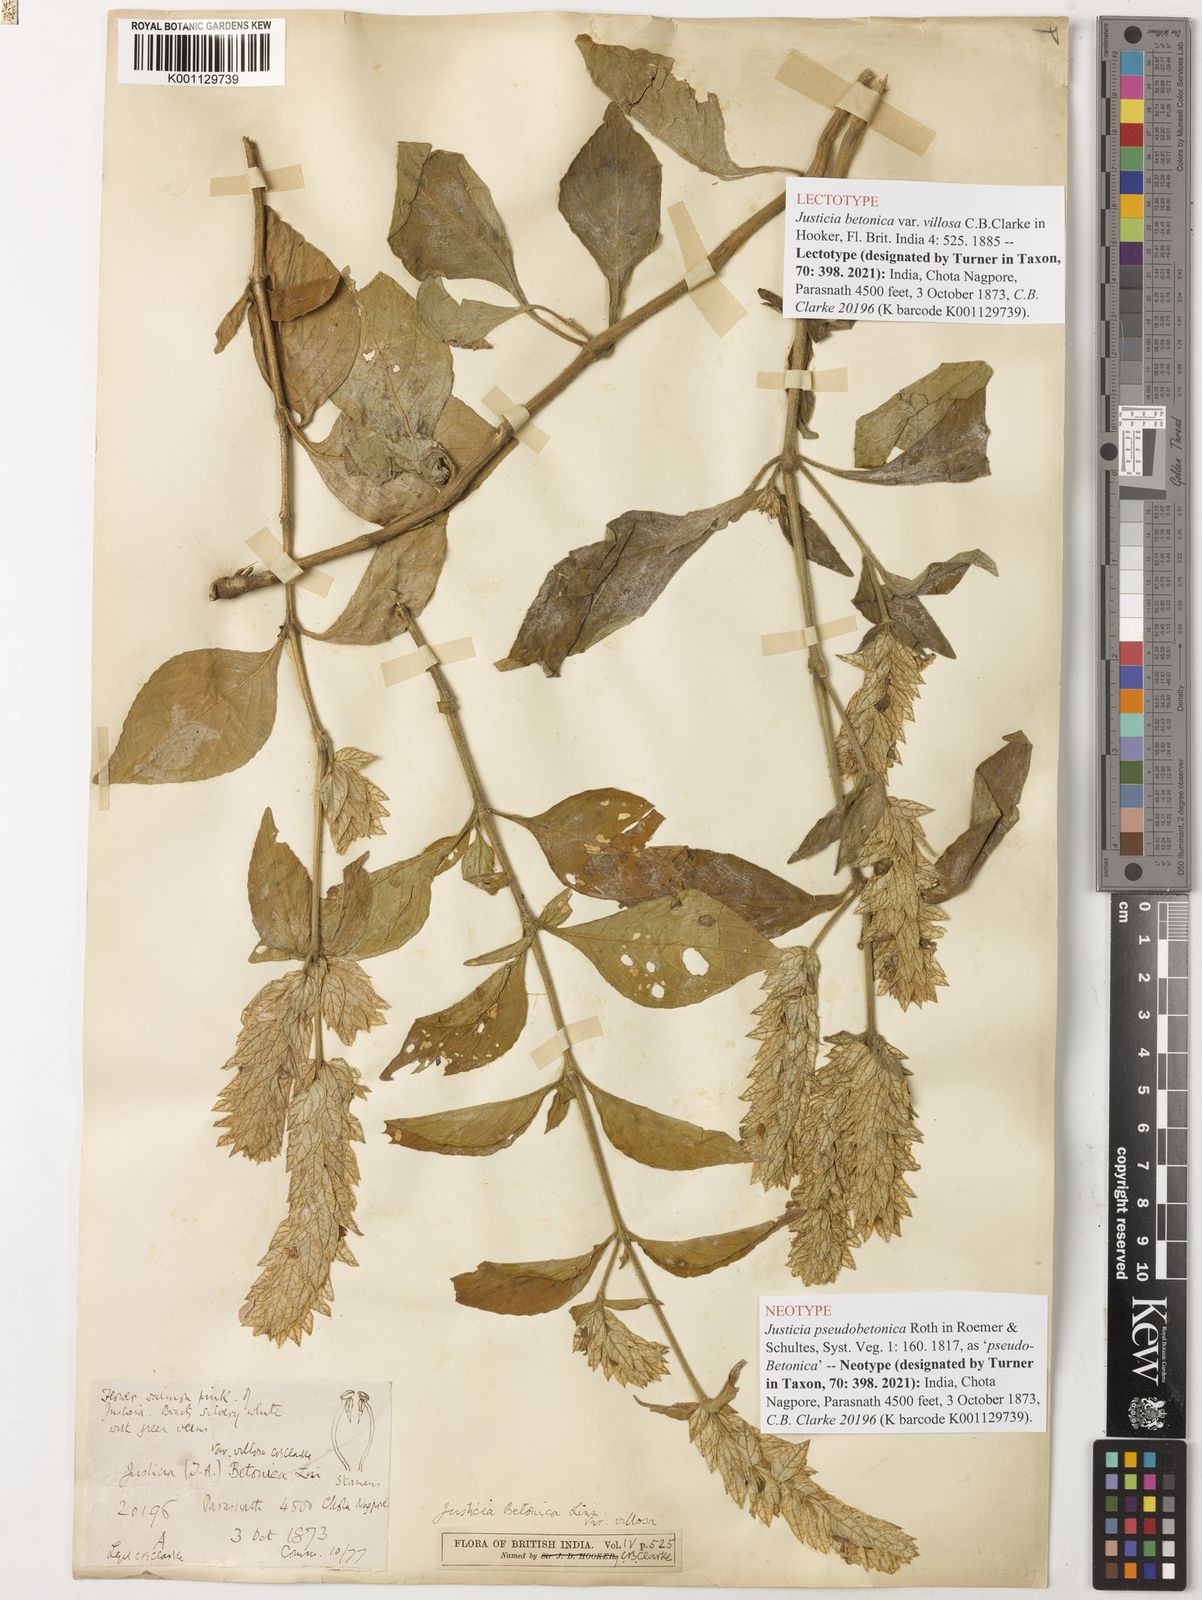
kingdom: Plantae
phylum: Tracheophyta
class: Magnoliopsida
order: Lamiales
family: Acanthaceae
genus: Nicoteba
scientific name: Nicoteba betonica
